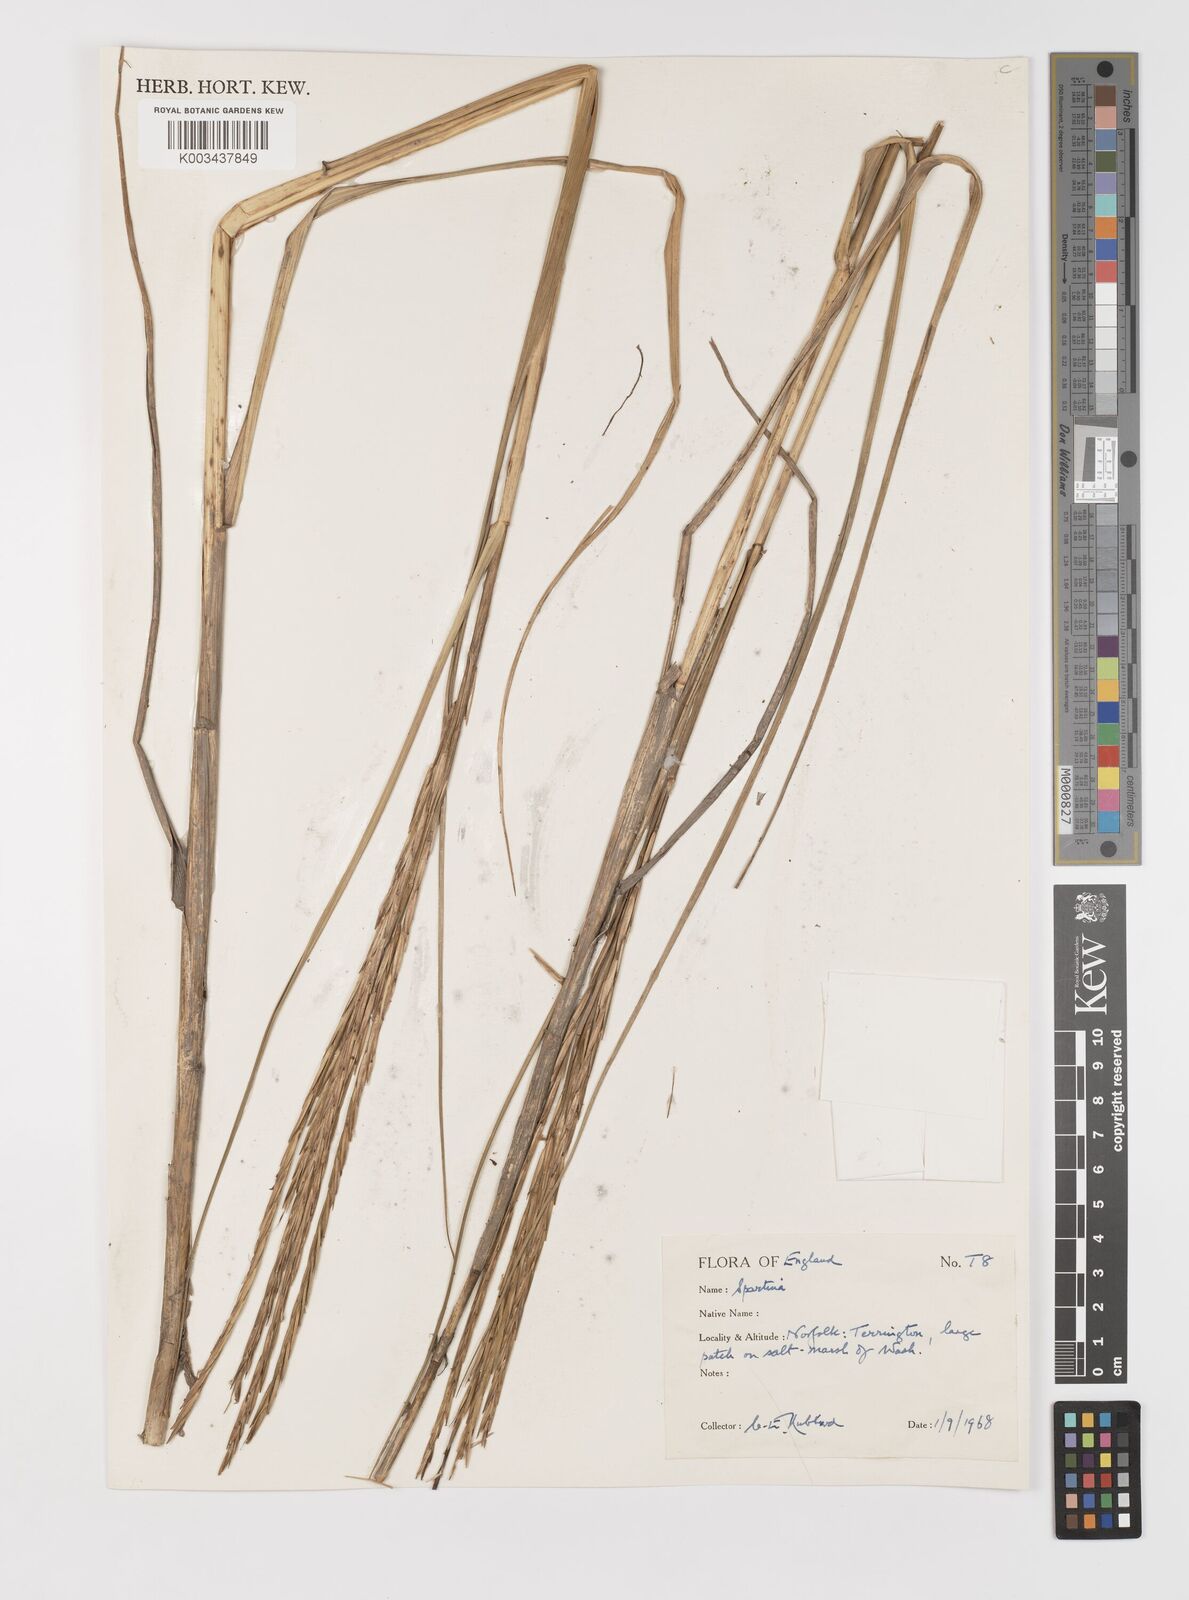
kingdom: Animalia
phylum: Mollusca
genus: Spartina
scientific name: Spartina
